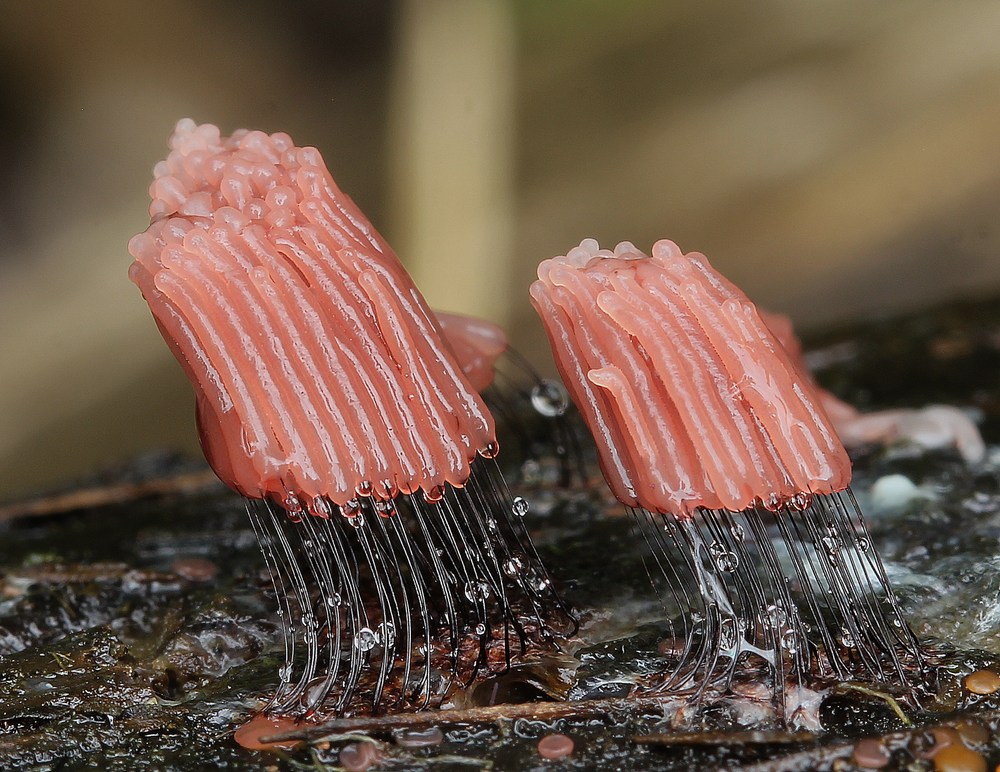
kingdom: Protozoa
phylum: Mycetozoa
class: Myxomycetes
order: Stemonitidales
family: Stemonitidaceae
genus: Stemonitis
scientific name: Stemonitis
